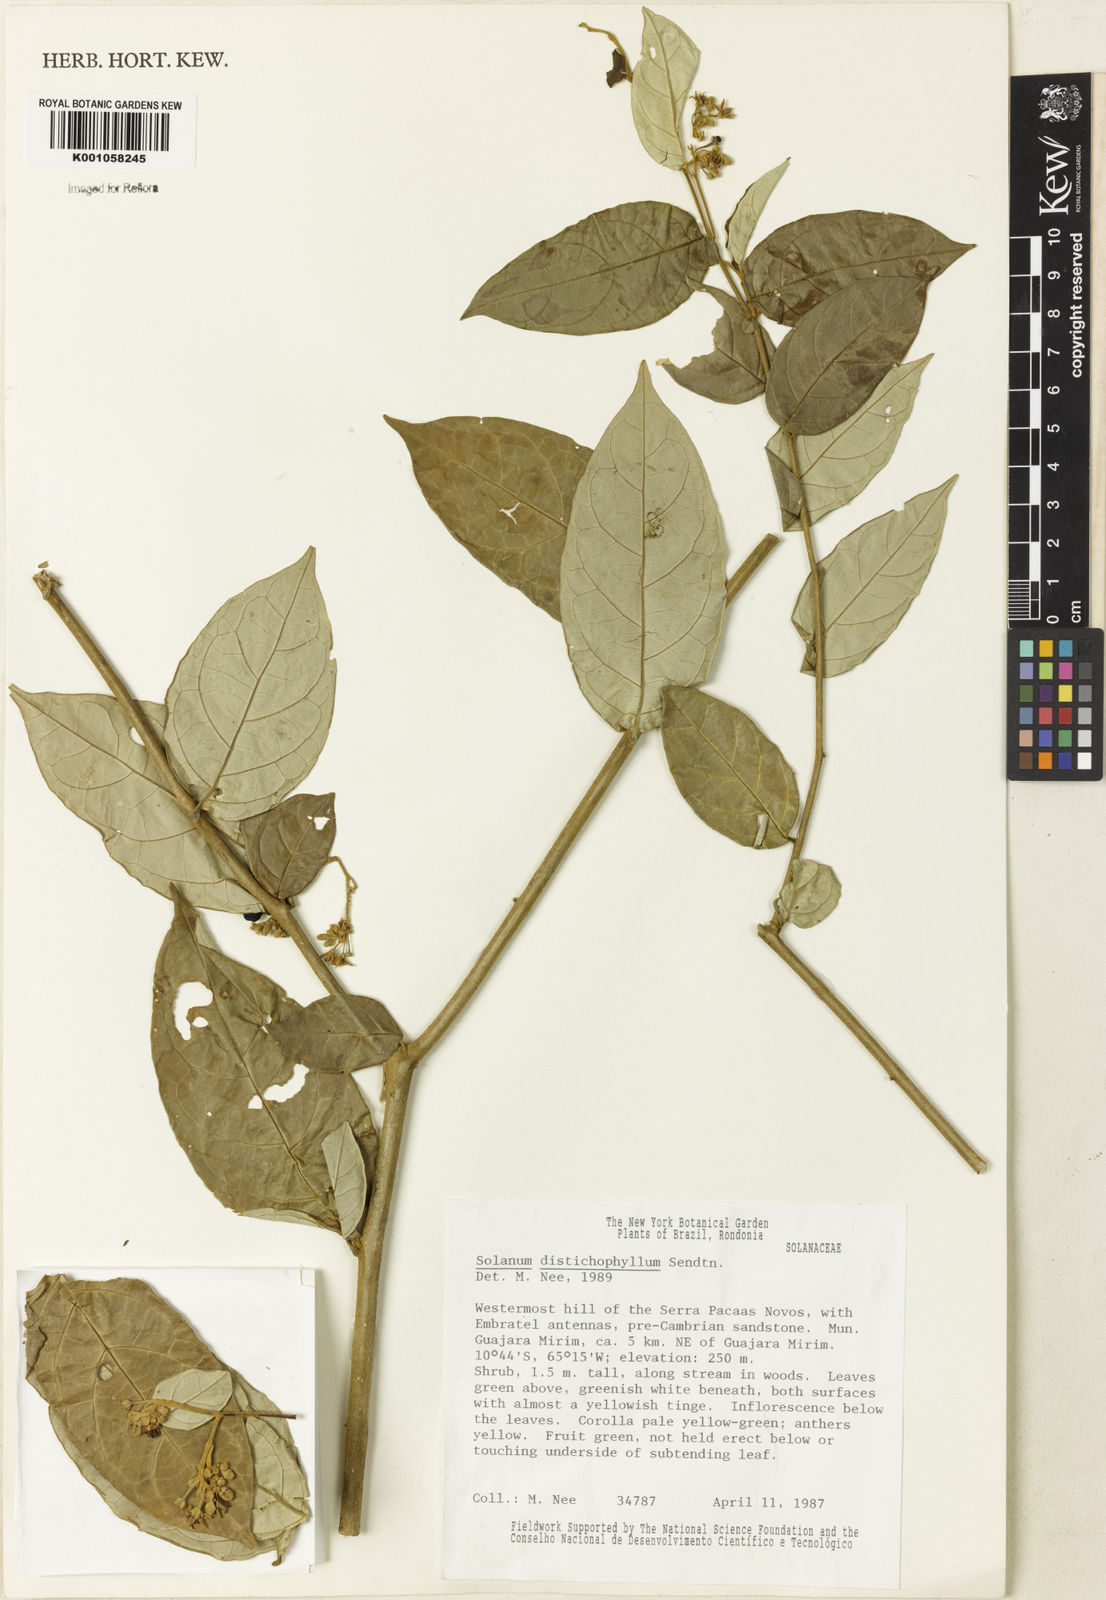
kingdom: Plantae
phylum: Tracheophyta
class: Magnoliopsida
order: Solanales
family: Solanaceae
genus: Solanum
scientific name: Solanum distichophyllum
